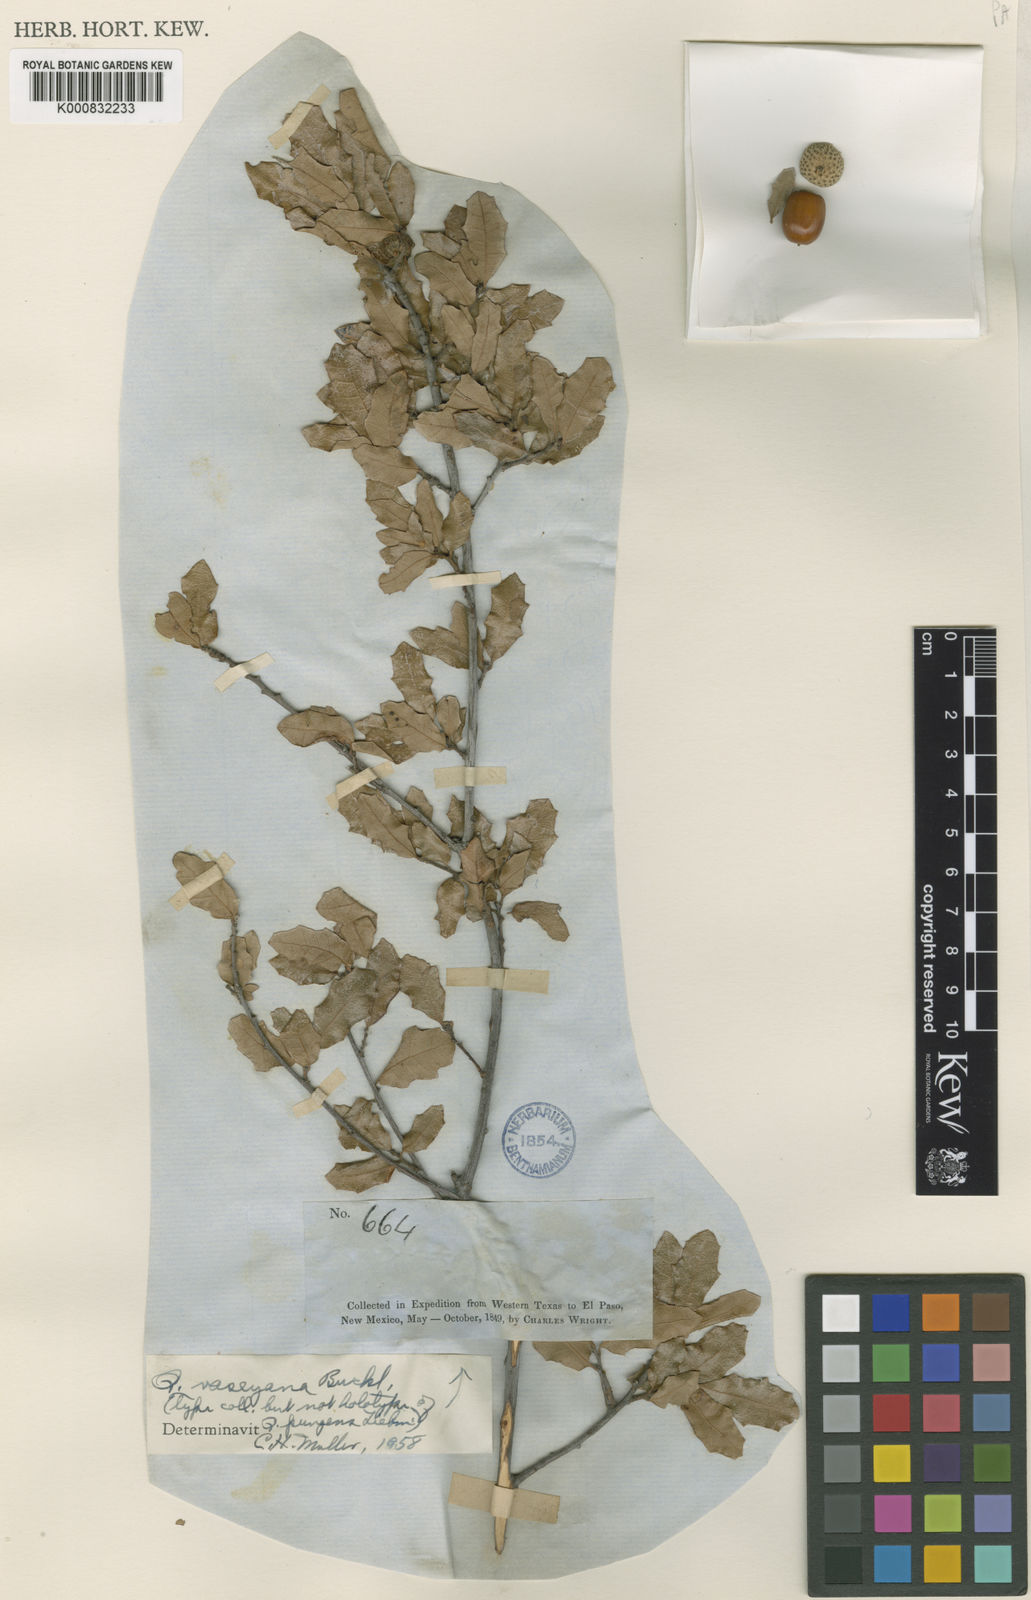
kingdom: Plantae
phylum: Tracheophyta
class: Magnoliopsida
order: Fagales
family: Fagaceae
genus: Quercus
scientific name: Quercus vaseyana
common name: Sandpaper oak
